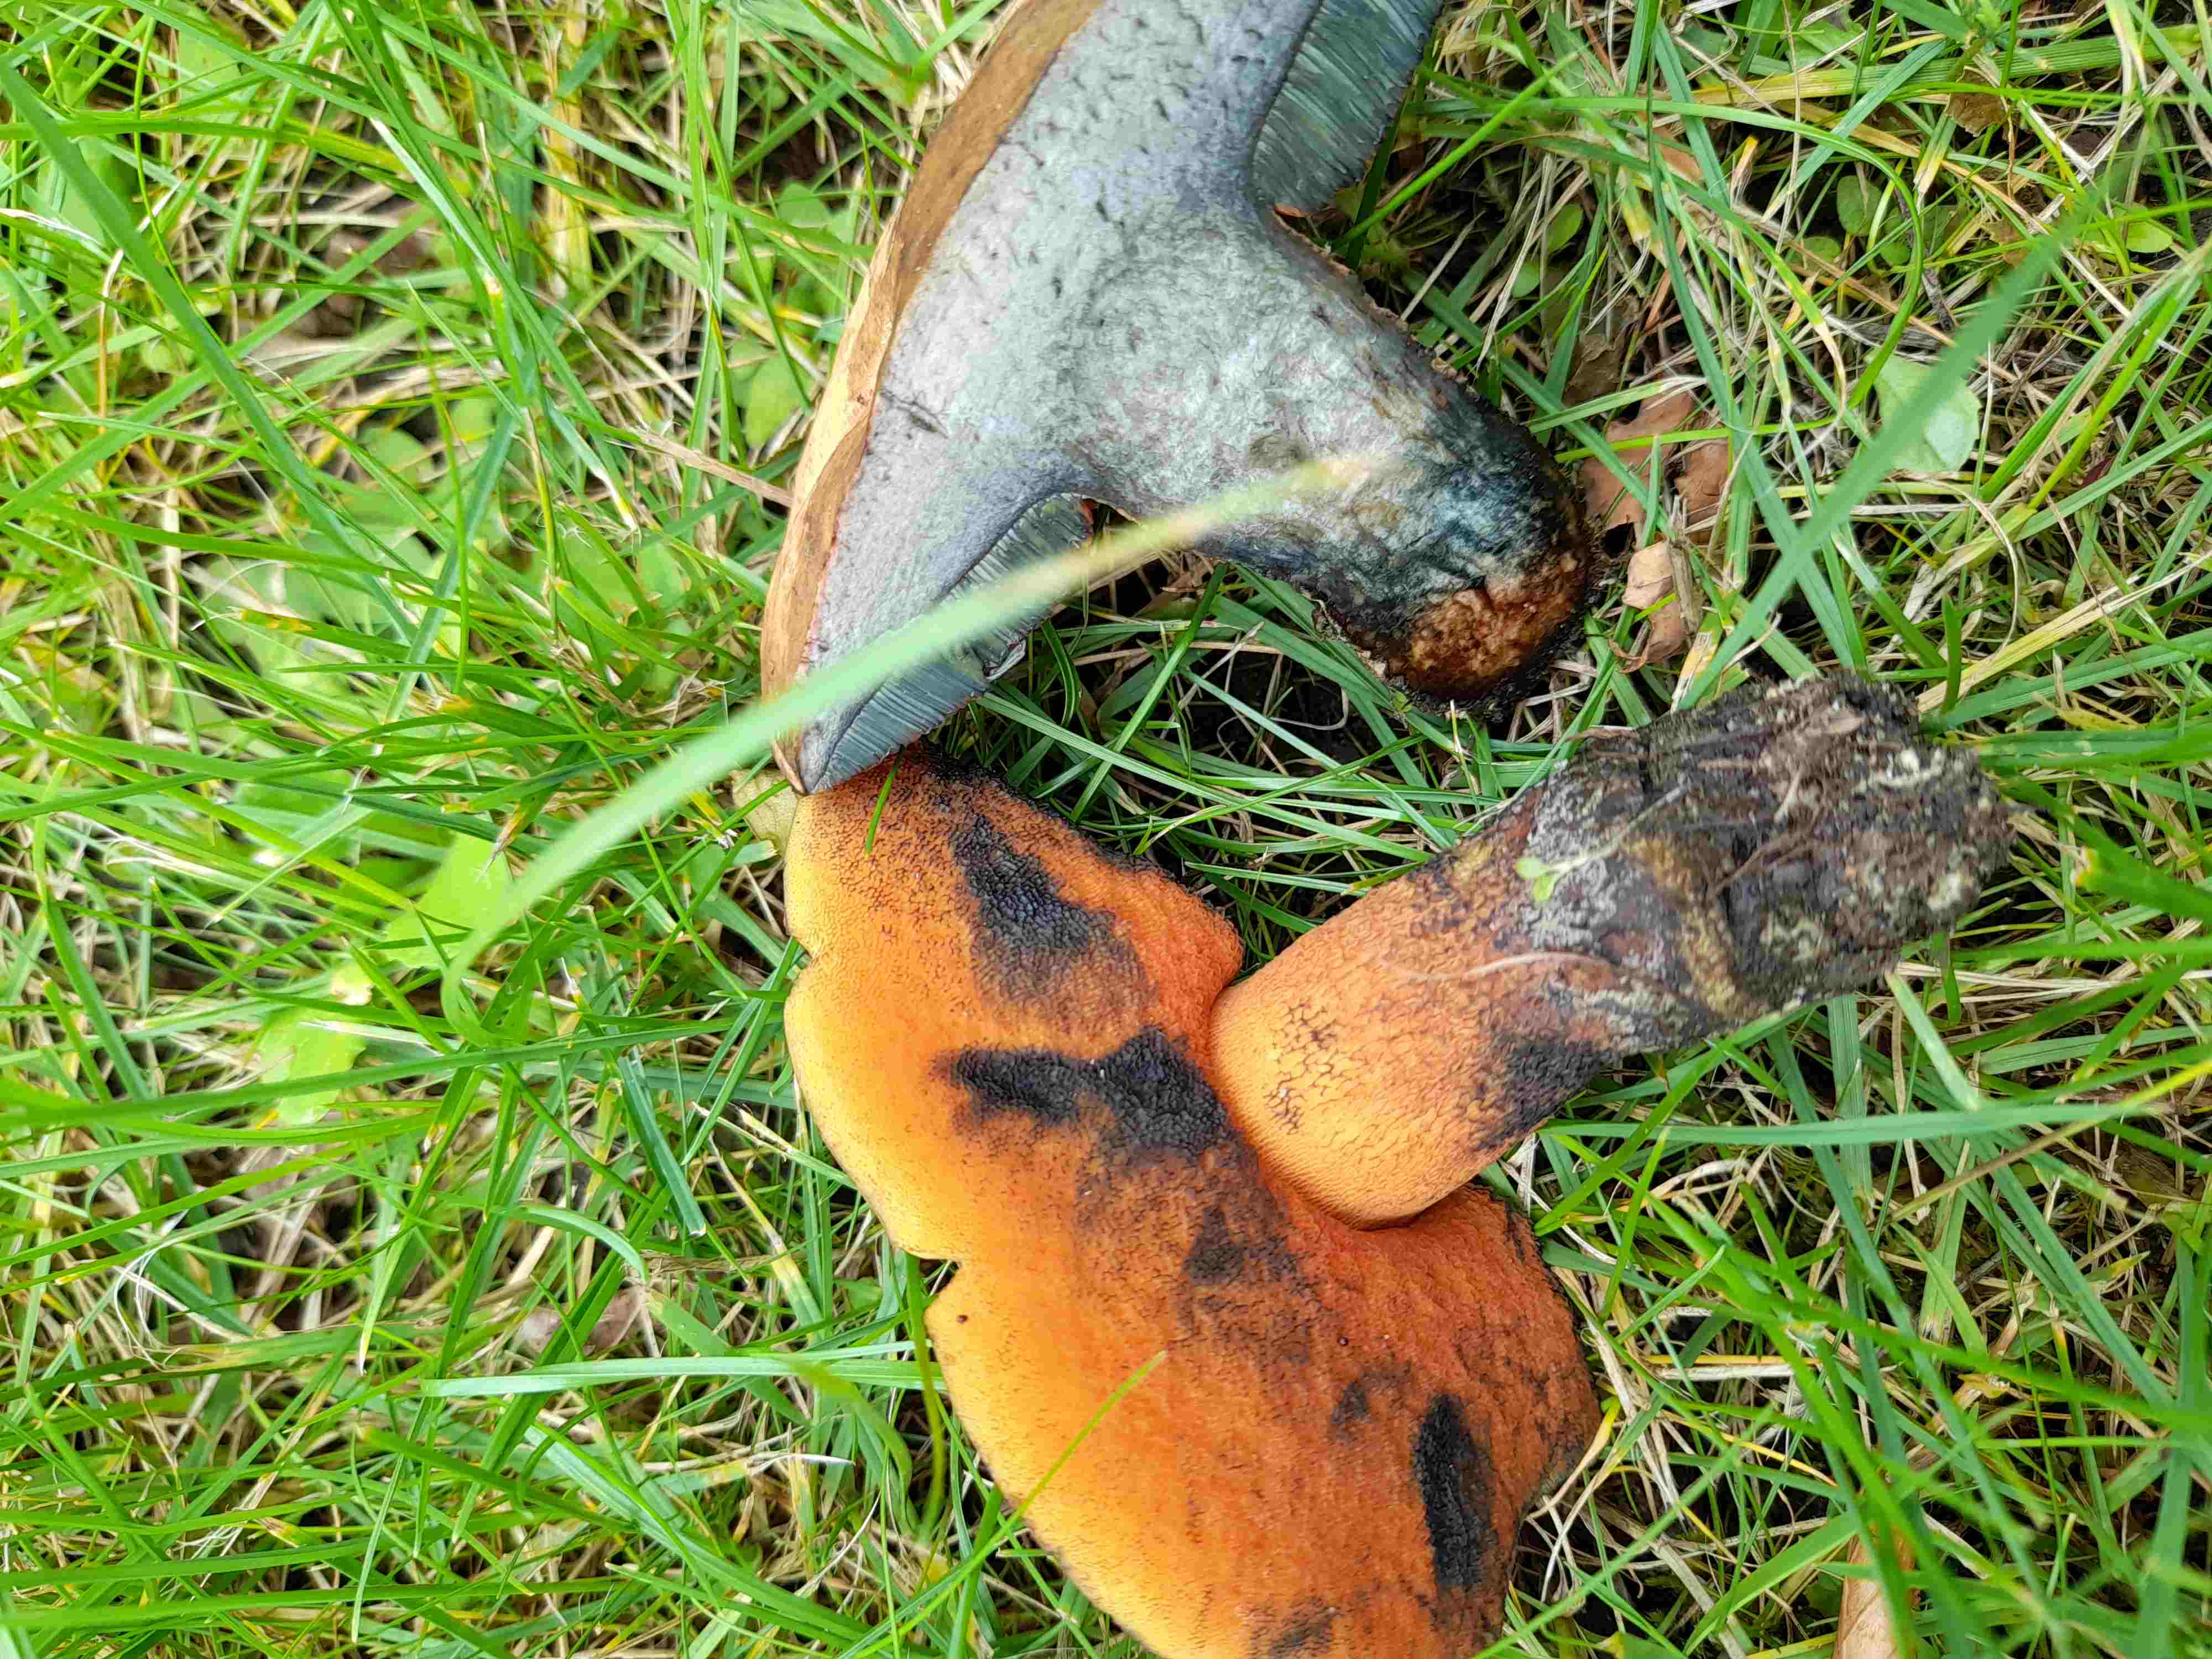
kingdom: Fungi
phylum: Basidiomycota
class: Agaricomycetes
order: Boletales
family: Boletaceae
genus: Neoboletus
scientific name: Neoboletus erythropus
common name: punktstokket indigorørhat
